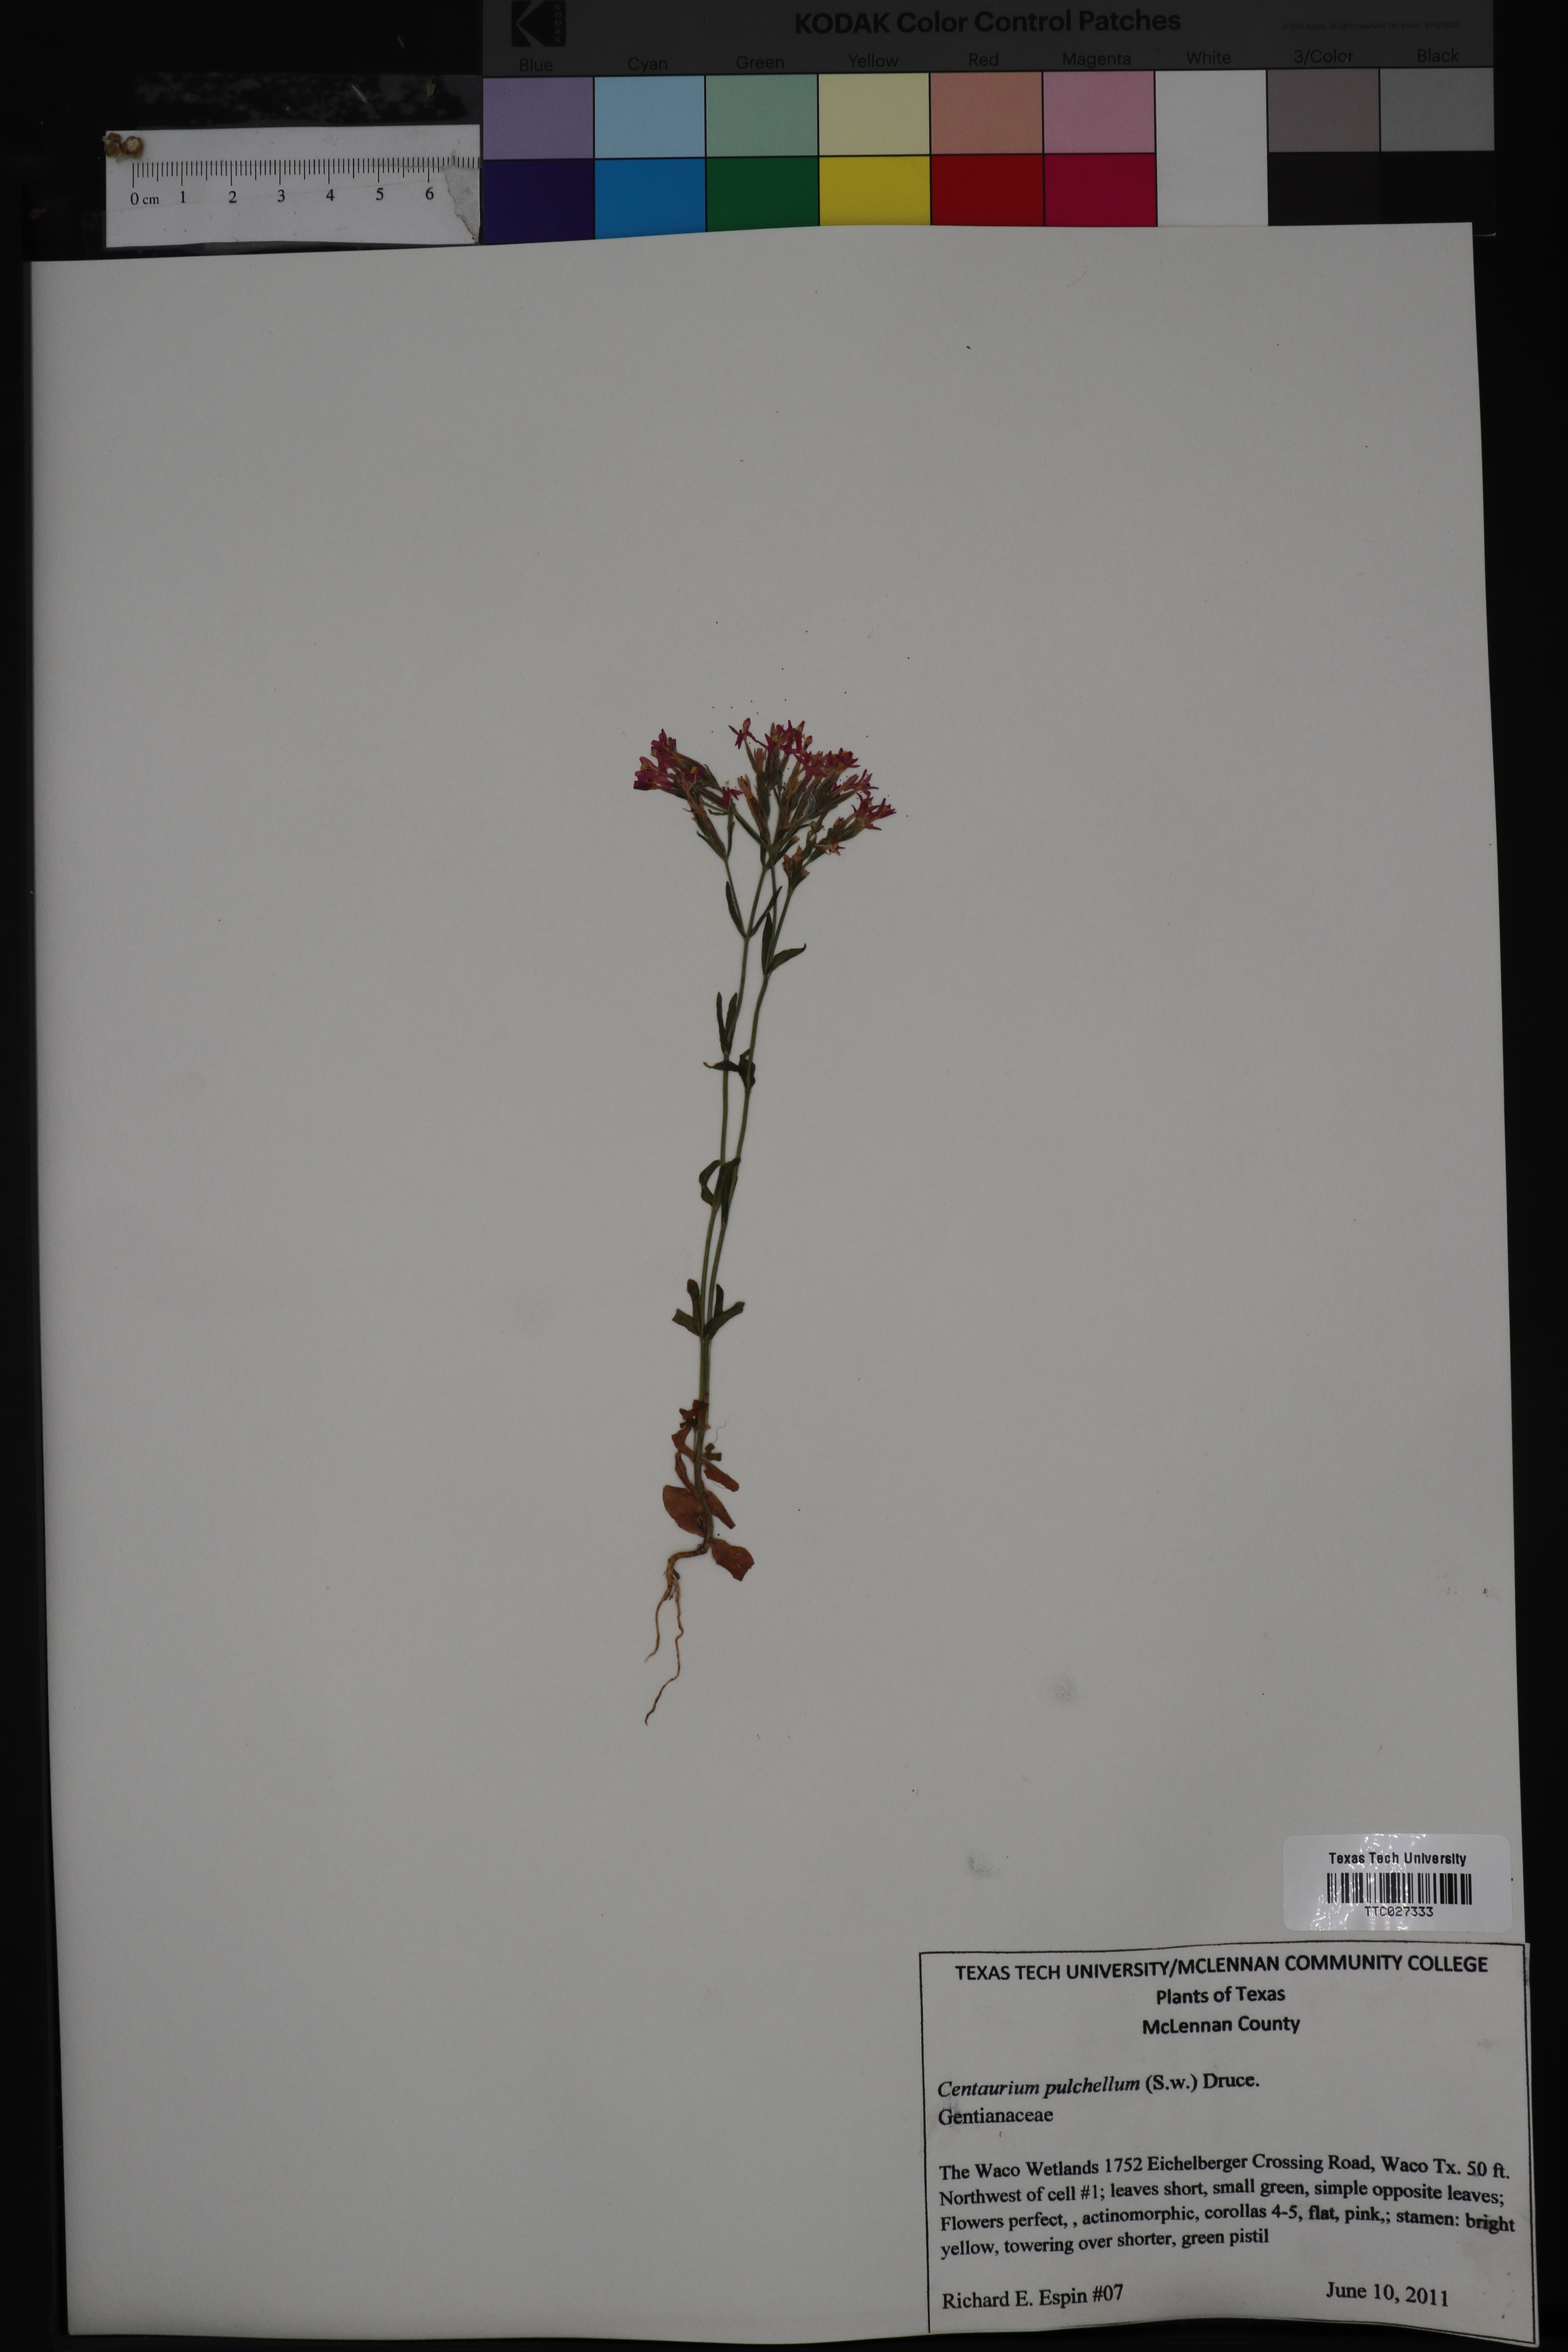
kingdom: Plantae
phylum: Tracheophyta
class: Magnoliopsida
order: Gentianales
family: Gentianaceae
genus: Centaurium
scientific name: Centaurium pulchellum
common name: Lesser centaury
